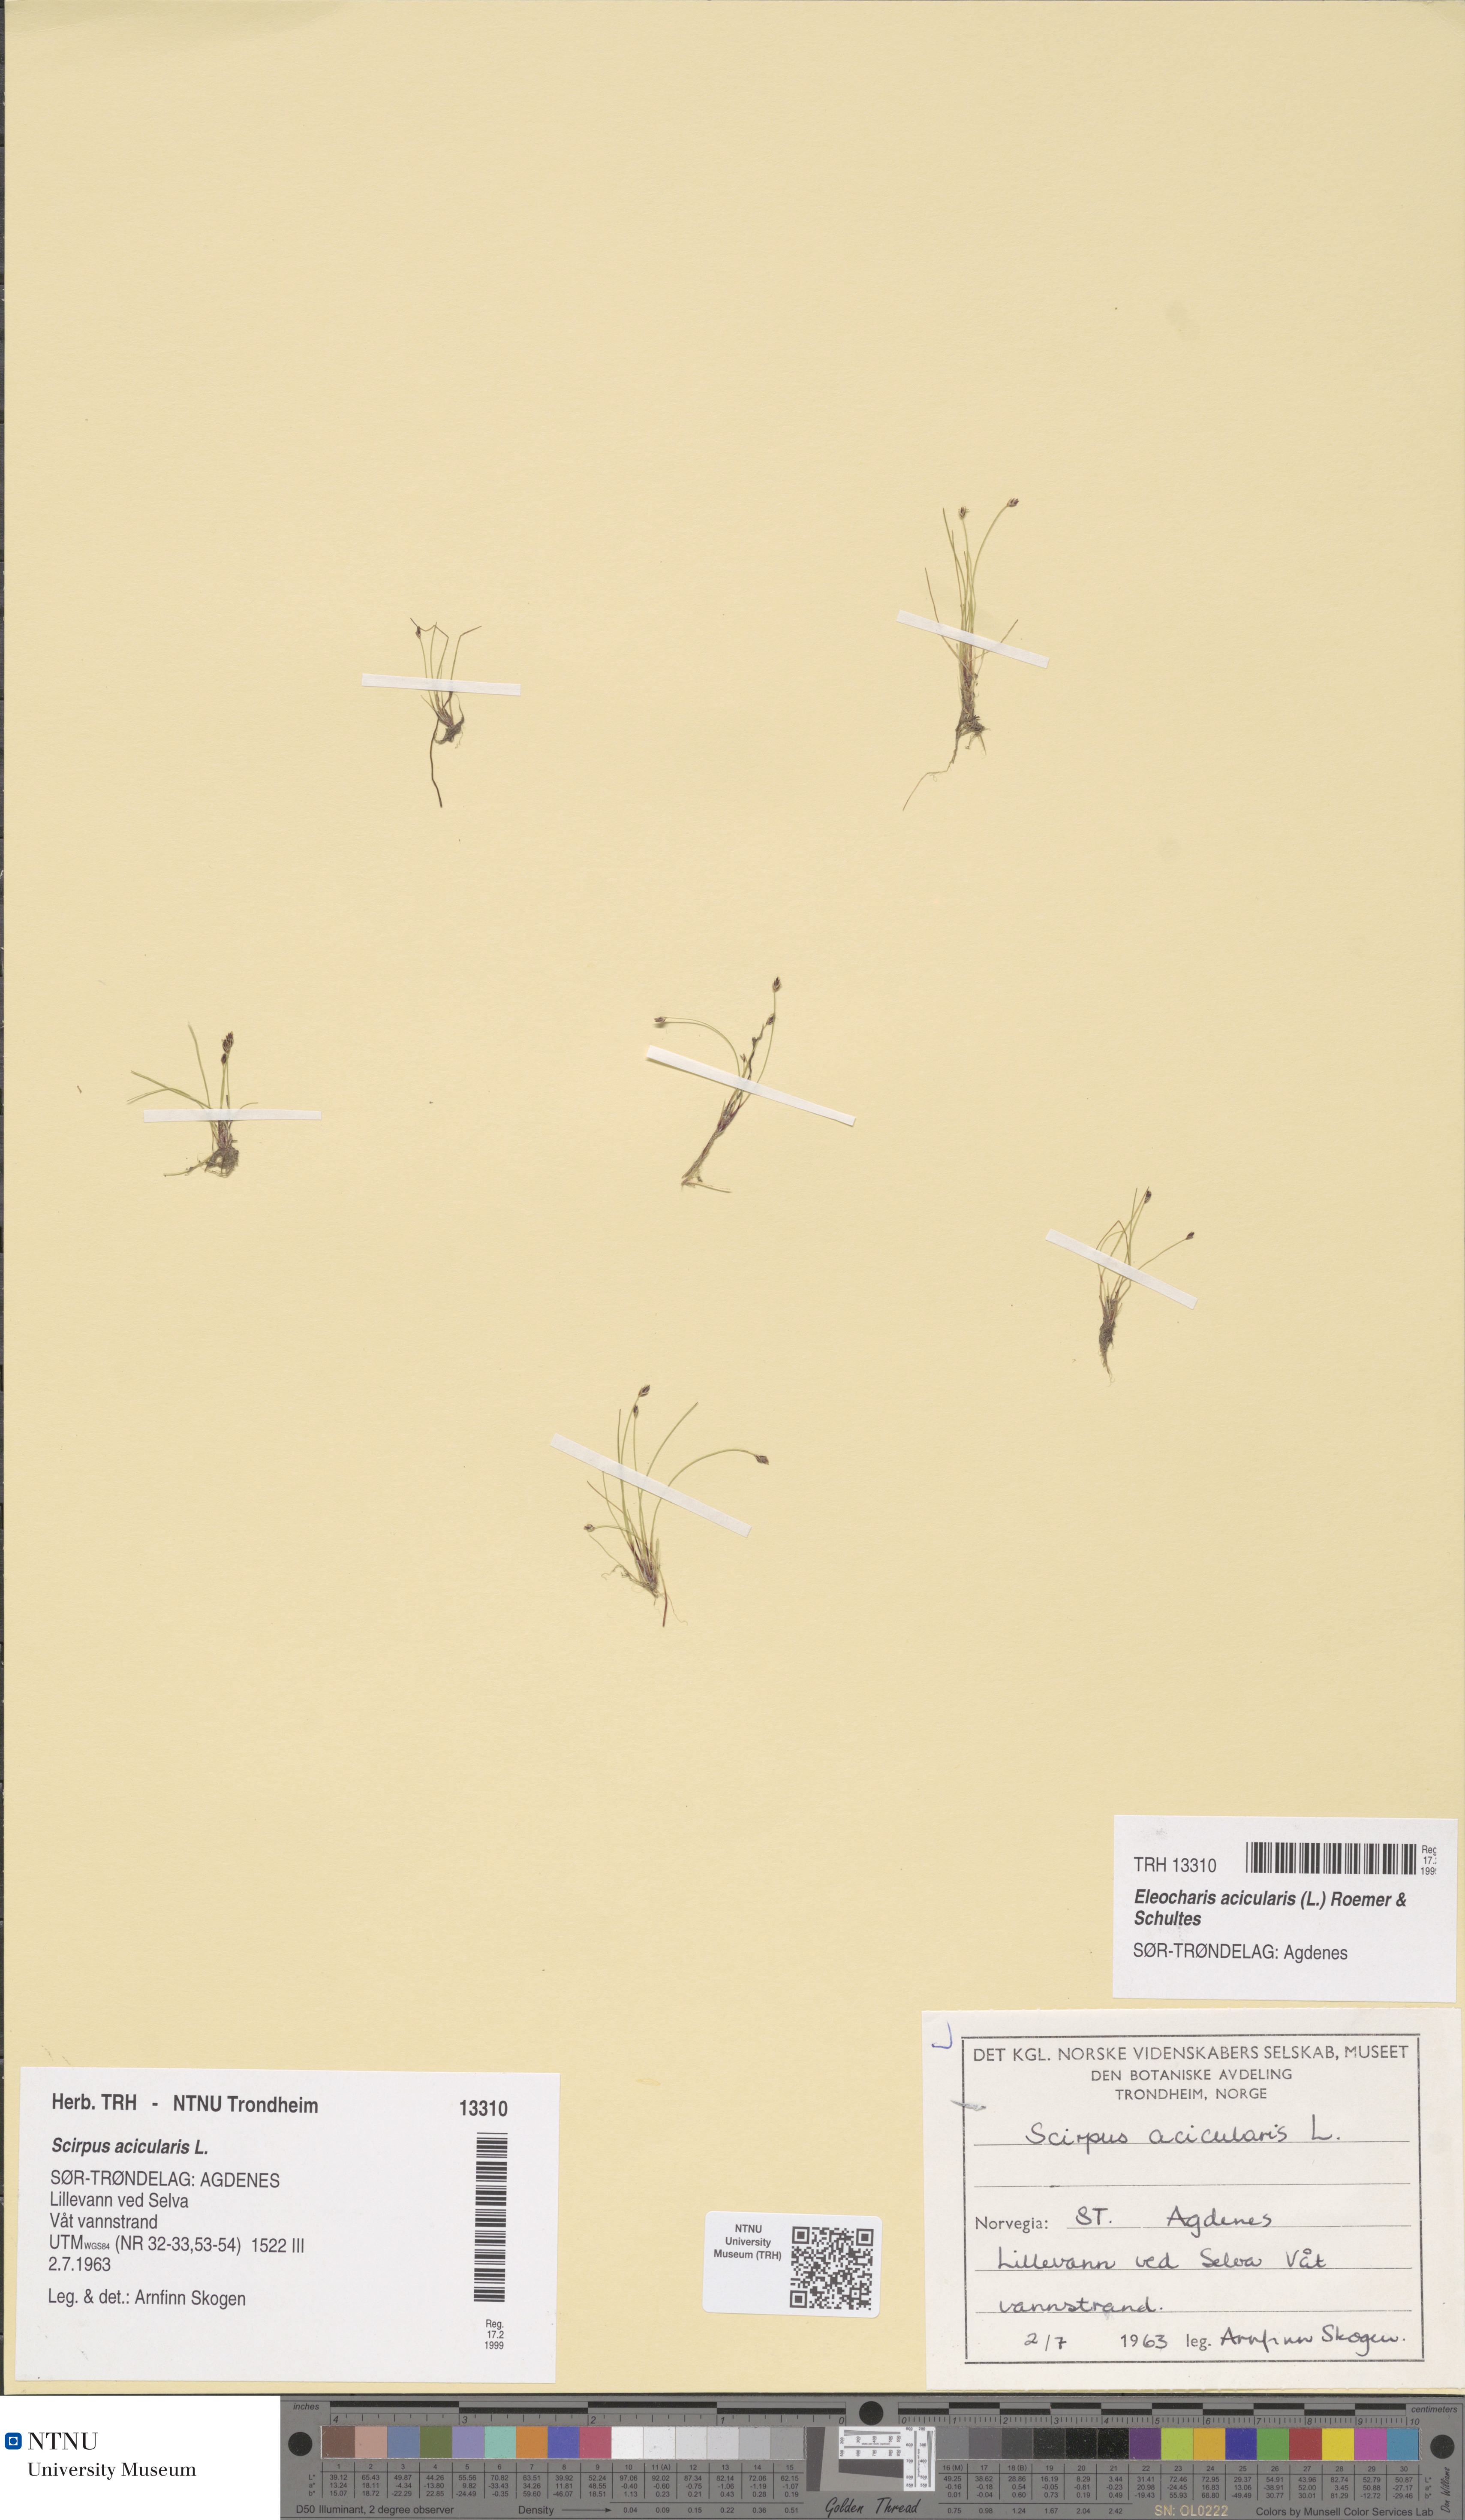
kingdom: Plantae
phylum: Tracheophyta
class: Liliopsida
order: Poales
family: Cyperaceae
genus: Eleocharis
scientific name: Eleocharis acicularis
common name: Needle spike-rush
